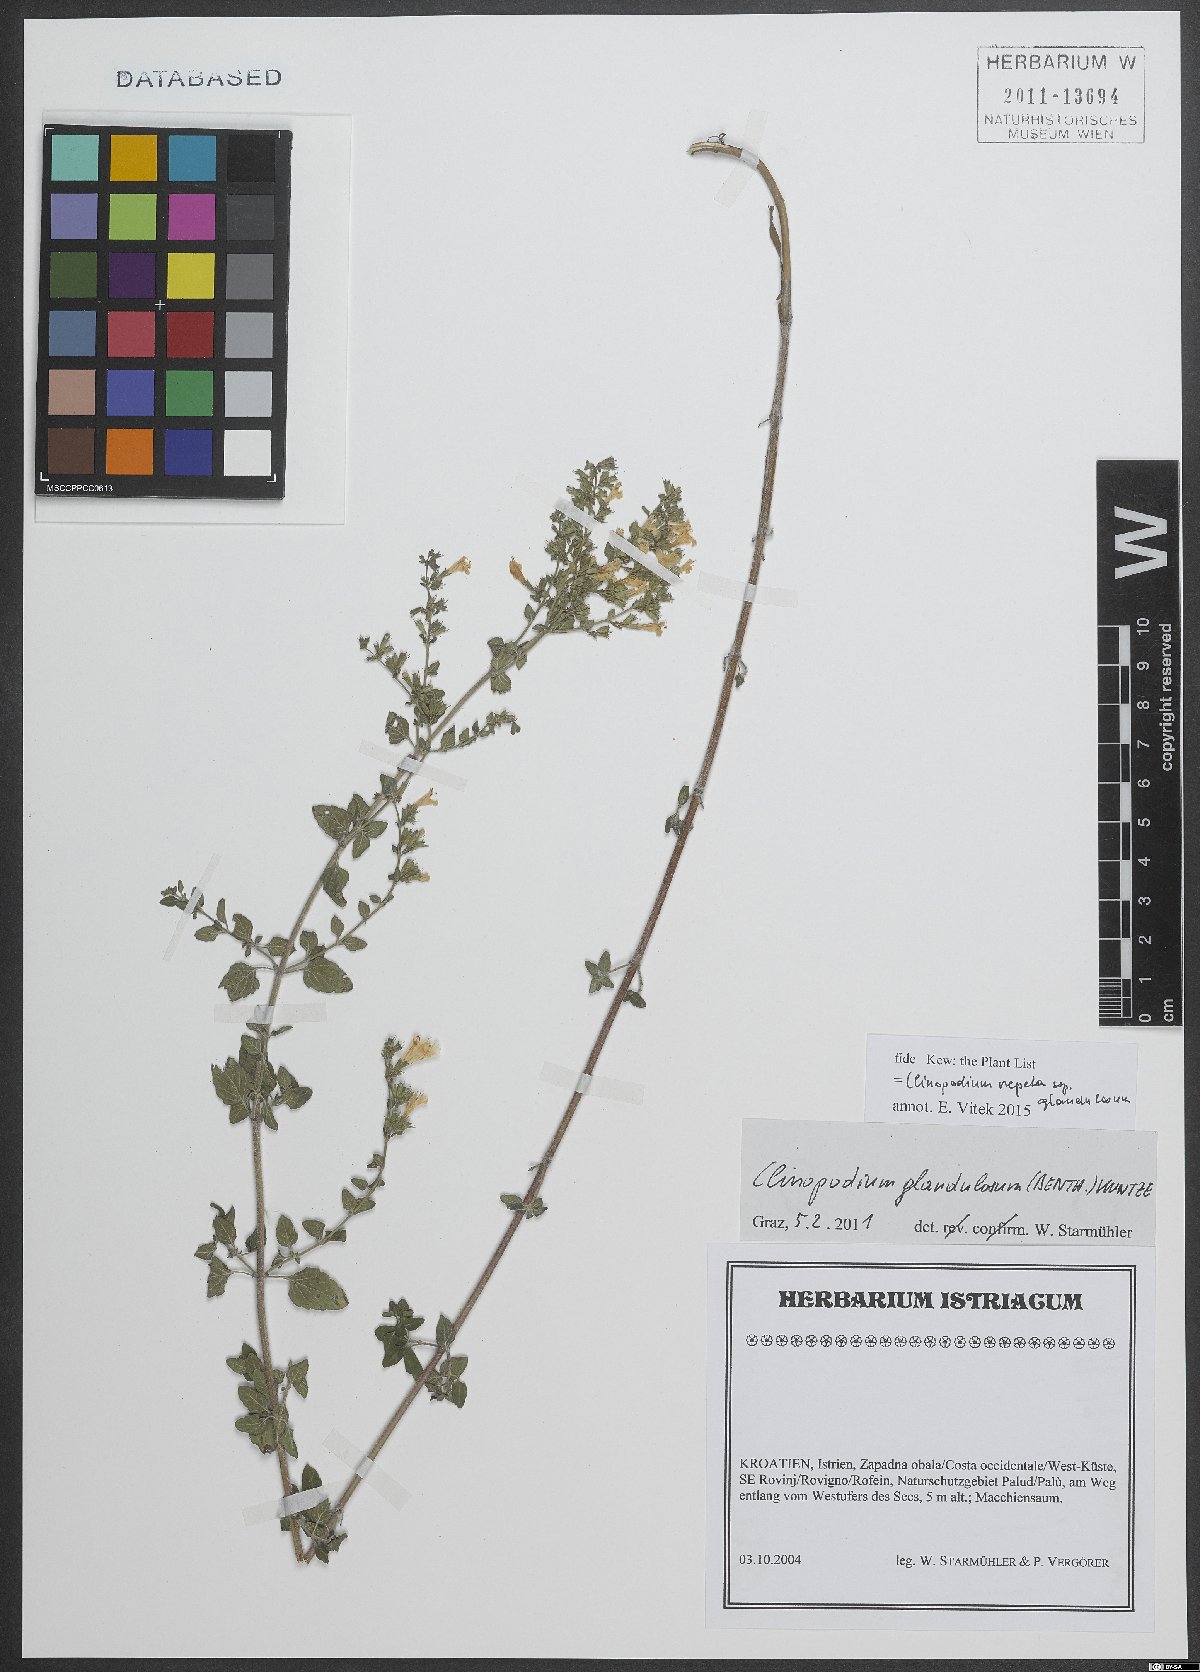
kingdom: Plantae
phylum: Tracheophyta
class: Magnoliopsida
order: Lamiales
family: Lamiaceae
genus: Clinopodium
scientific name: Clinopodium nepeta
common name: Lesser calamint
